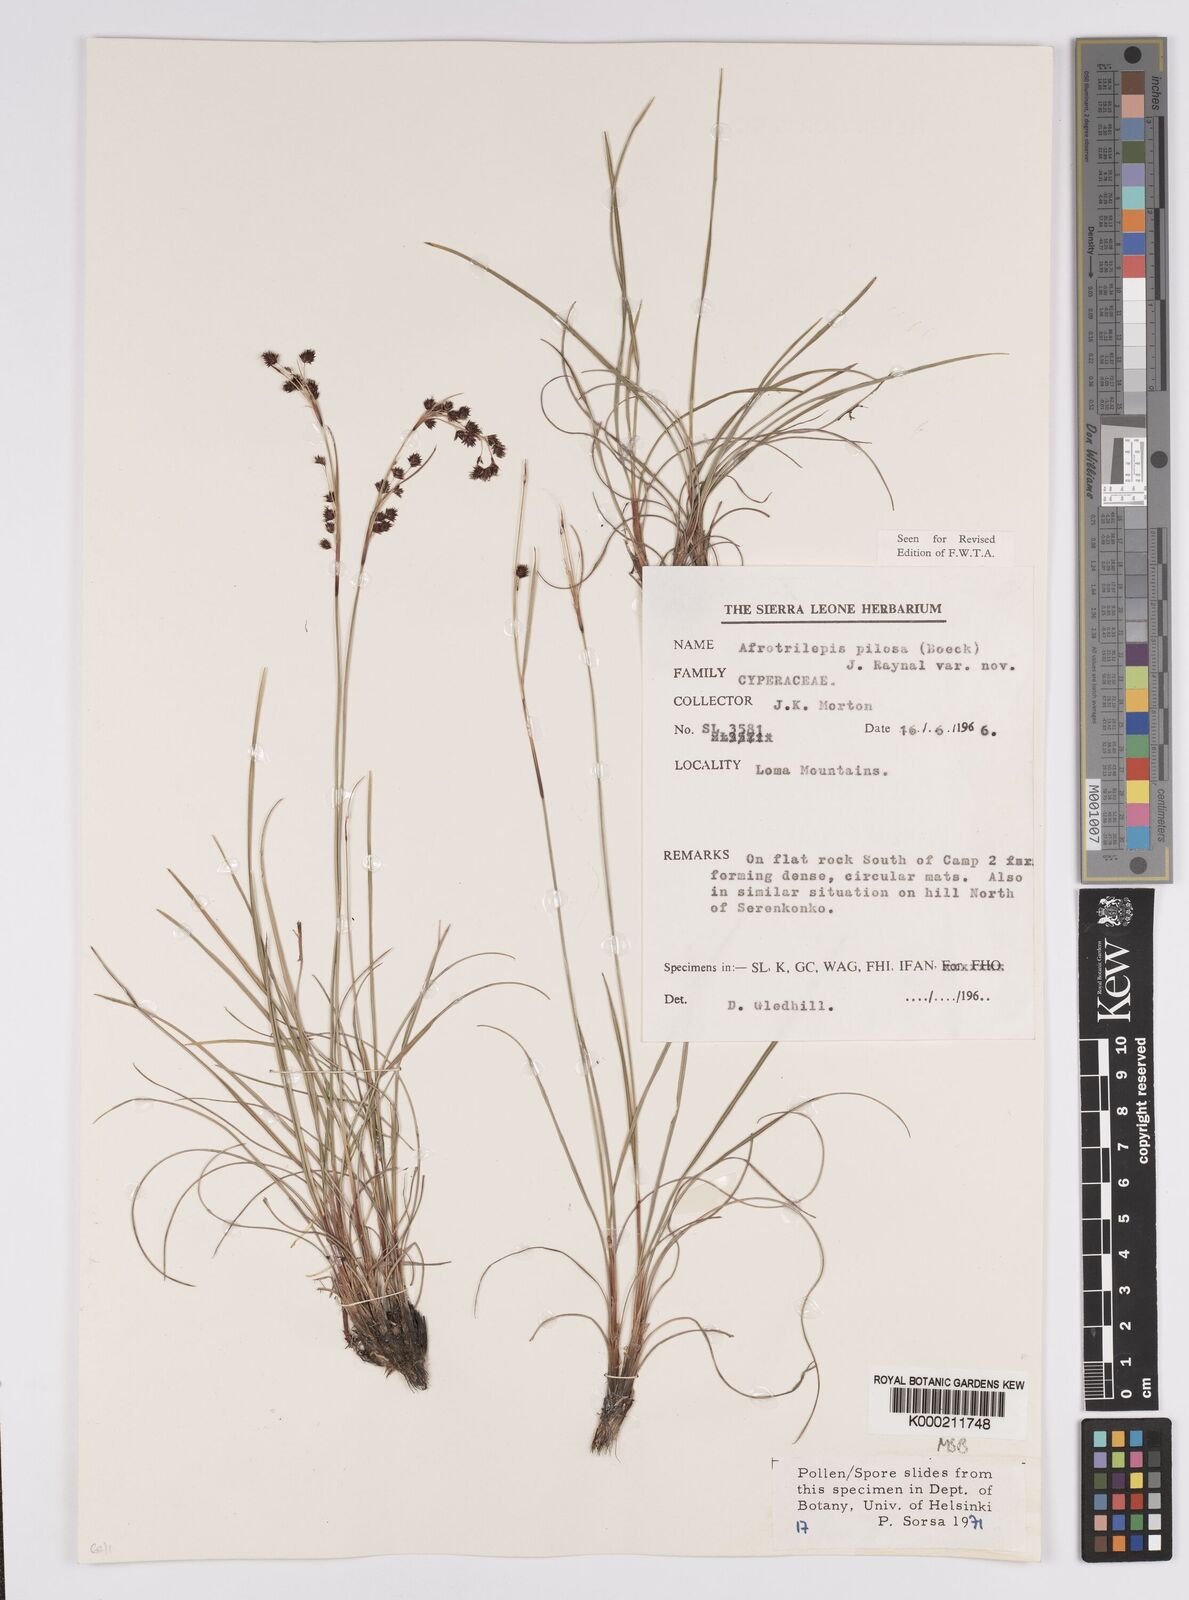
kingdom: Plantae
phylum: Tracheophyta
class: Liliopsida
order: Poales
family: Cyperaceae
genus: Afrotrilepis
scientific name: Afrotrilepis pilosa
